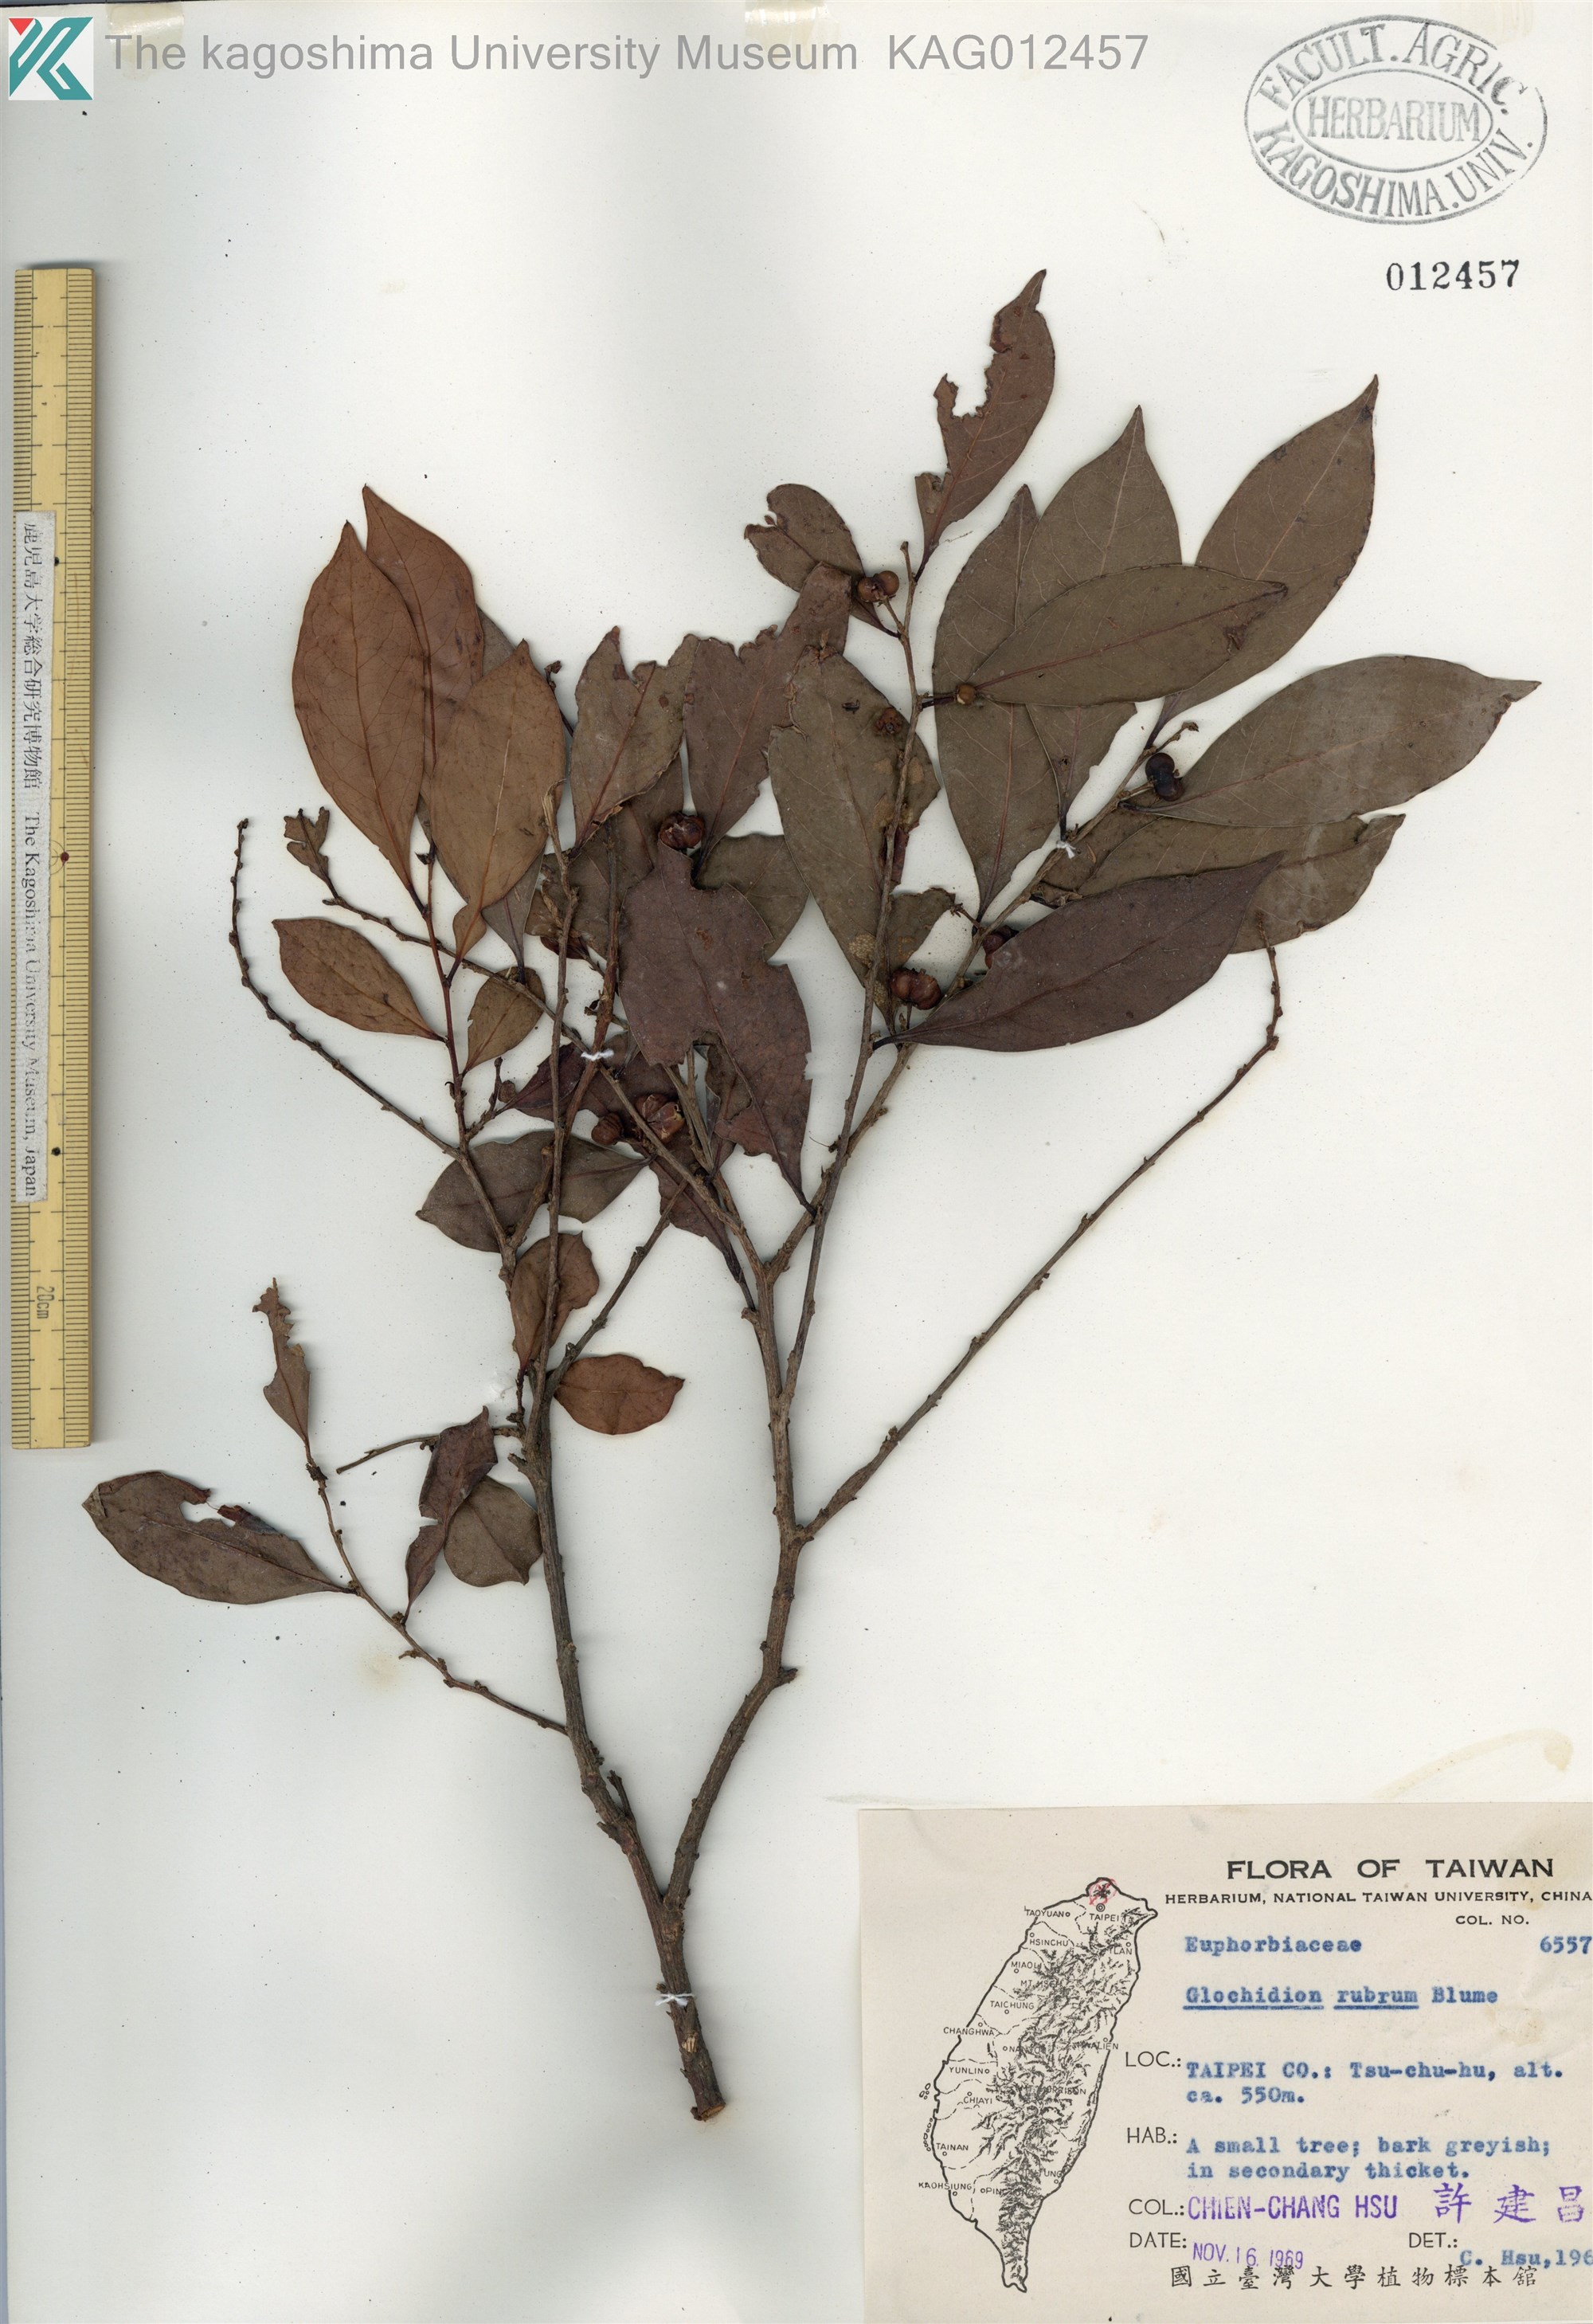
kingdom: Plantae
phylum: Tracheophyta
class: Magnoliopsida
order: Malpighiales
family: Phyllanthaceae
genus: Glochidion
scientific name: Glochidion rubrum
